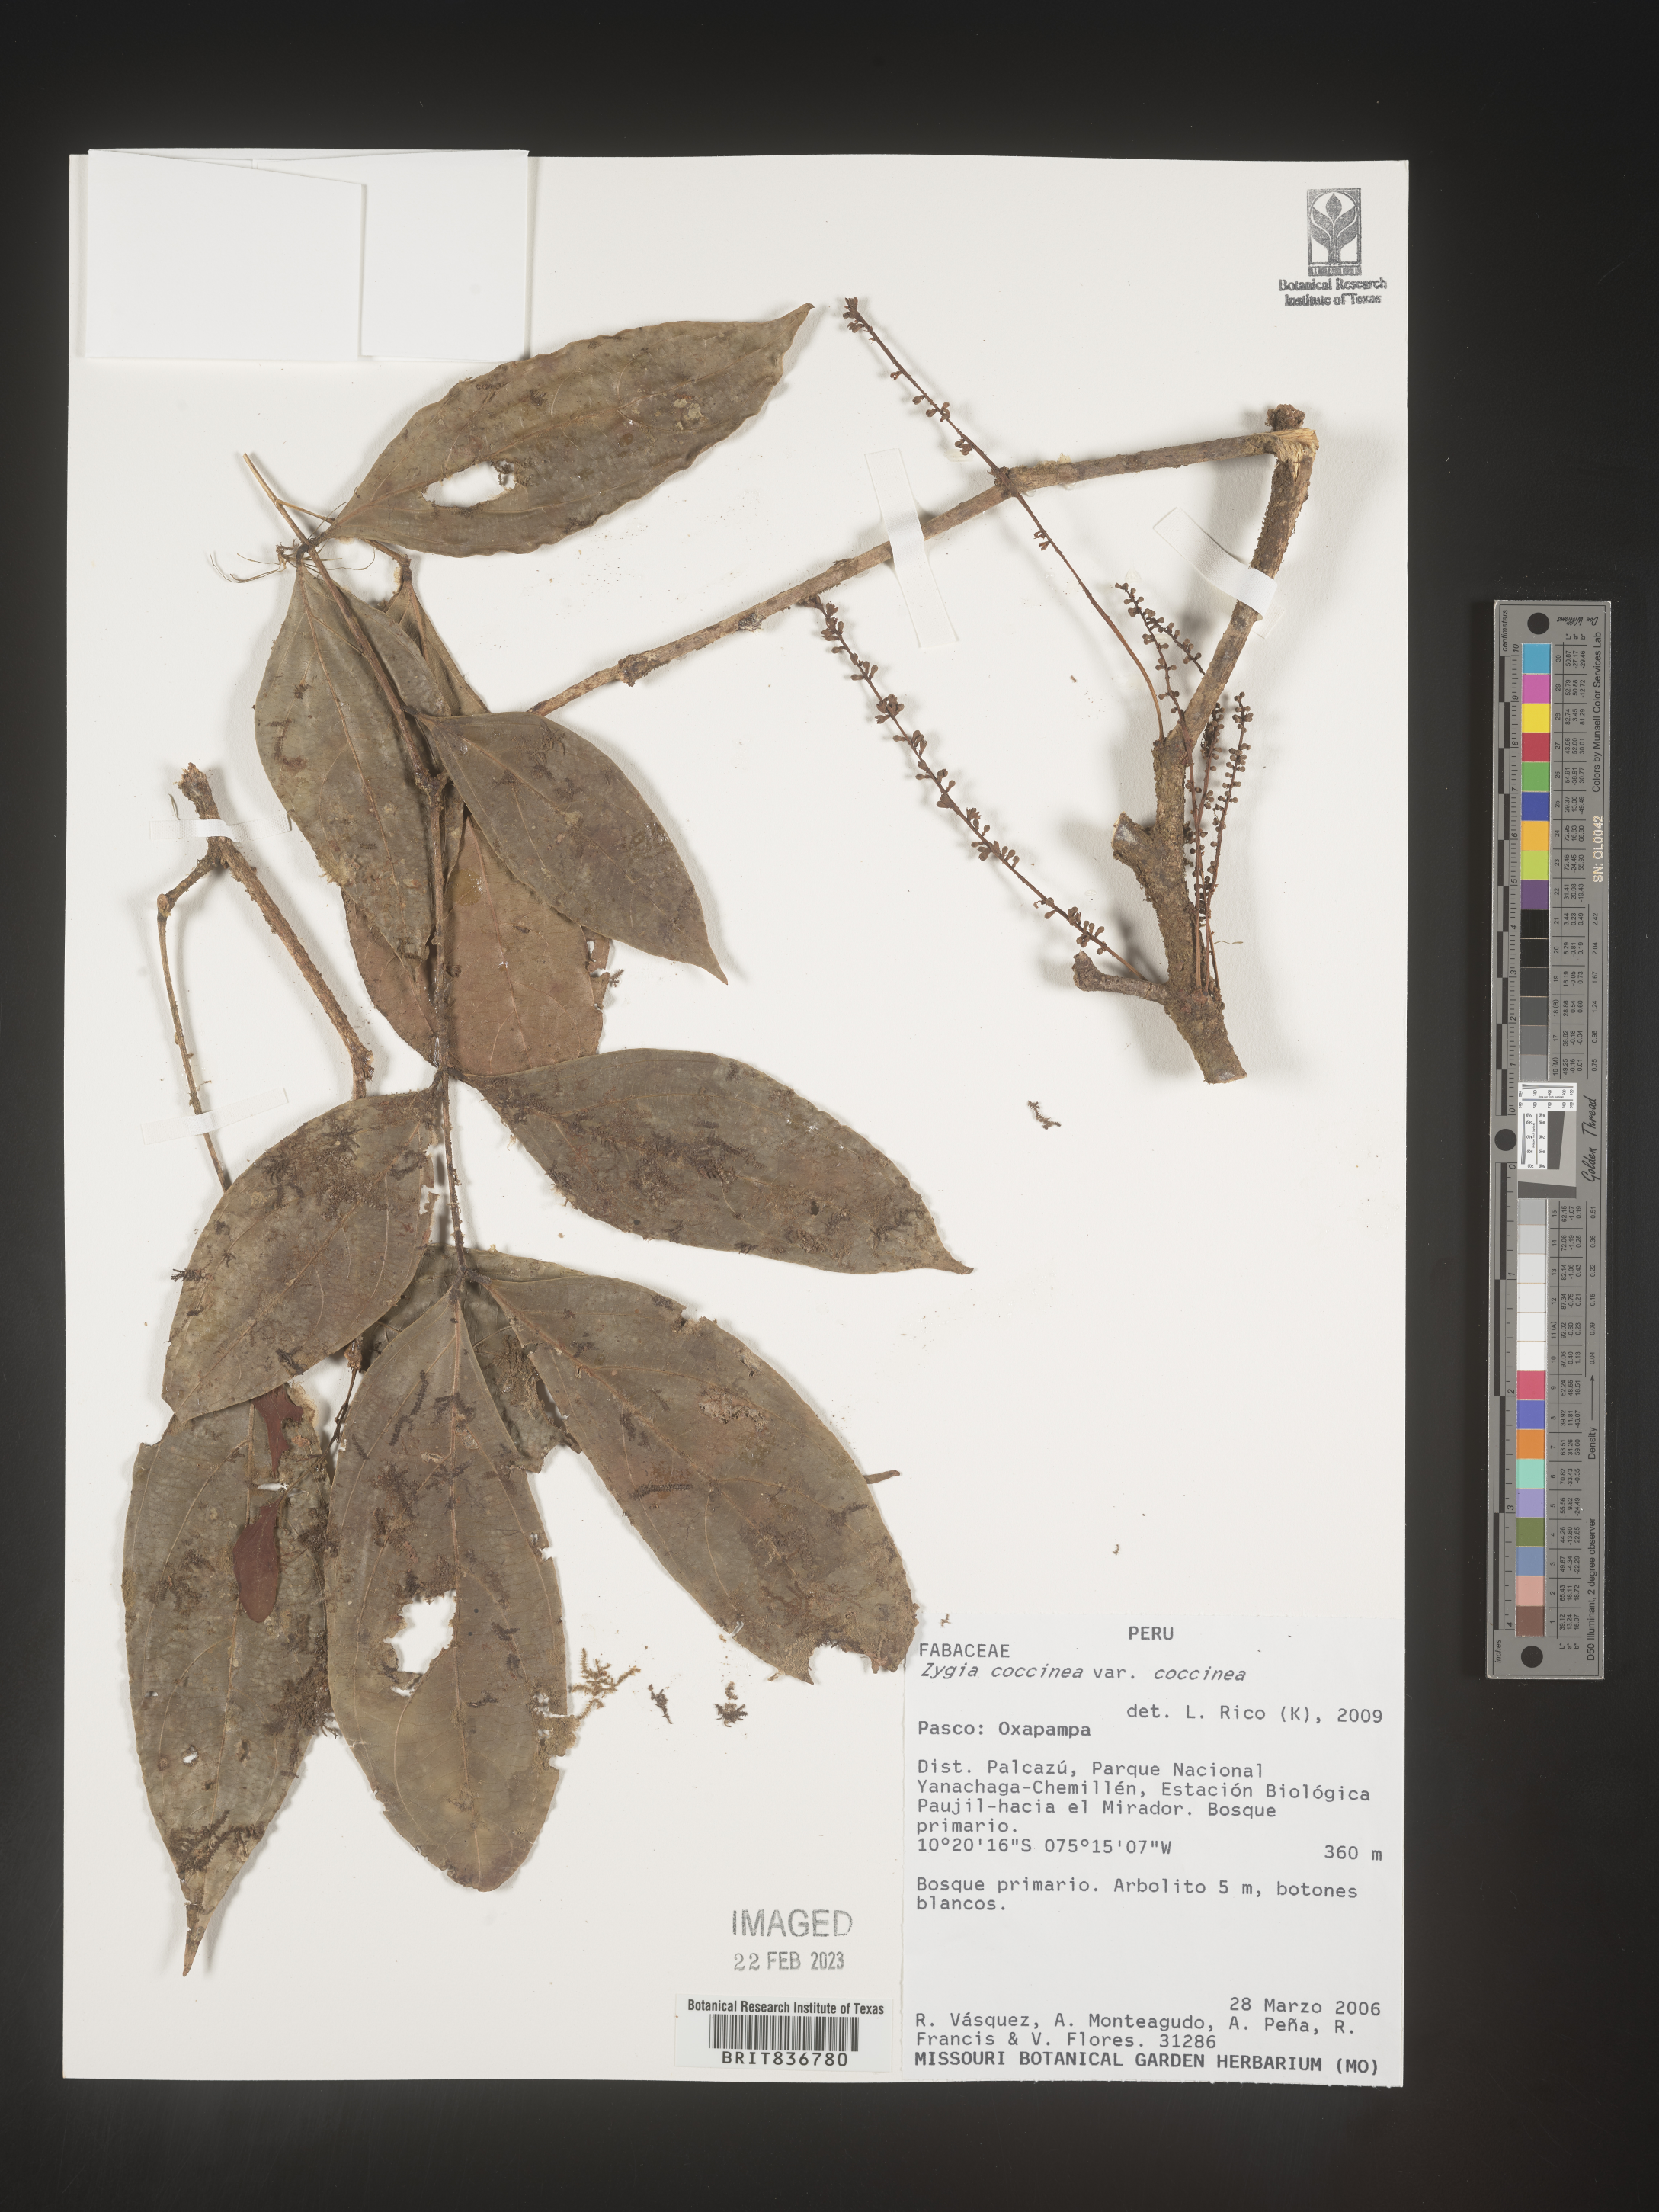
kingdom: Plantae
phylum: Tracheophyta
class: Magnoliopsida
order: Fabales
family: Fabaceae
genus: Zygia
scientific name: Zygia
